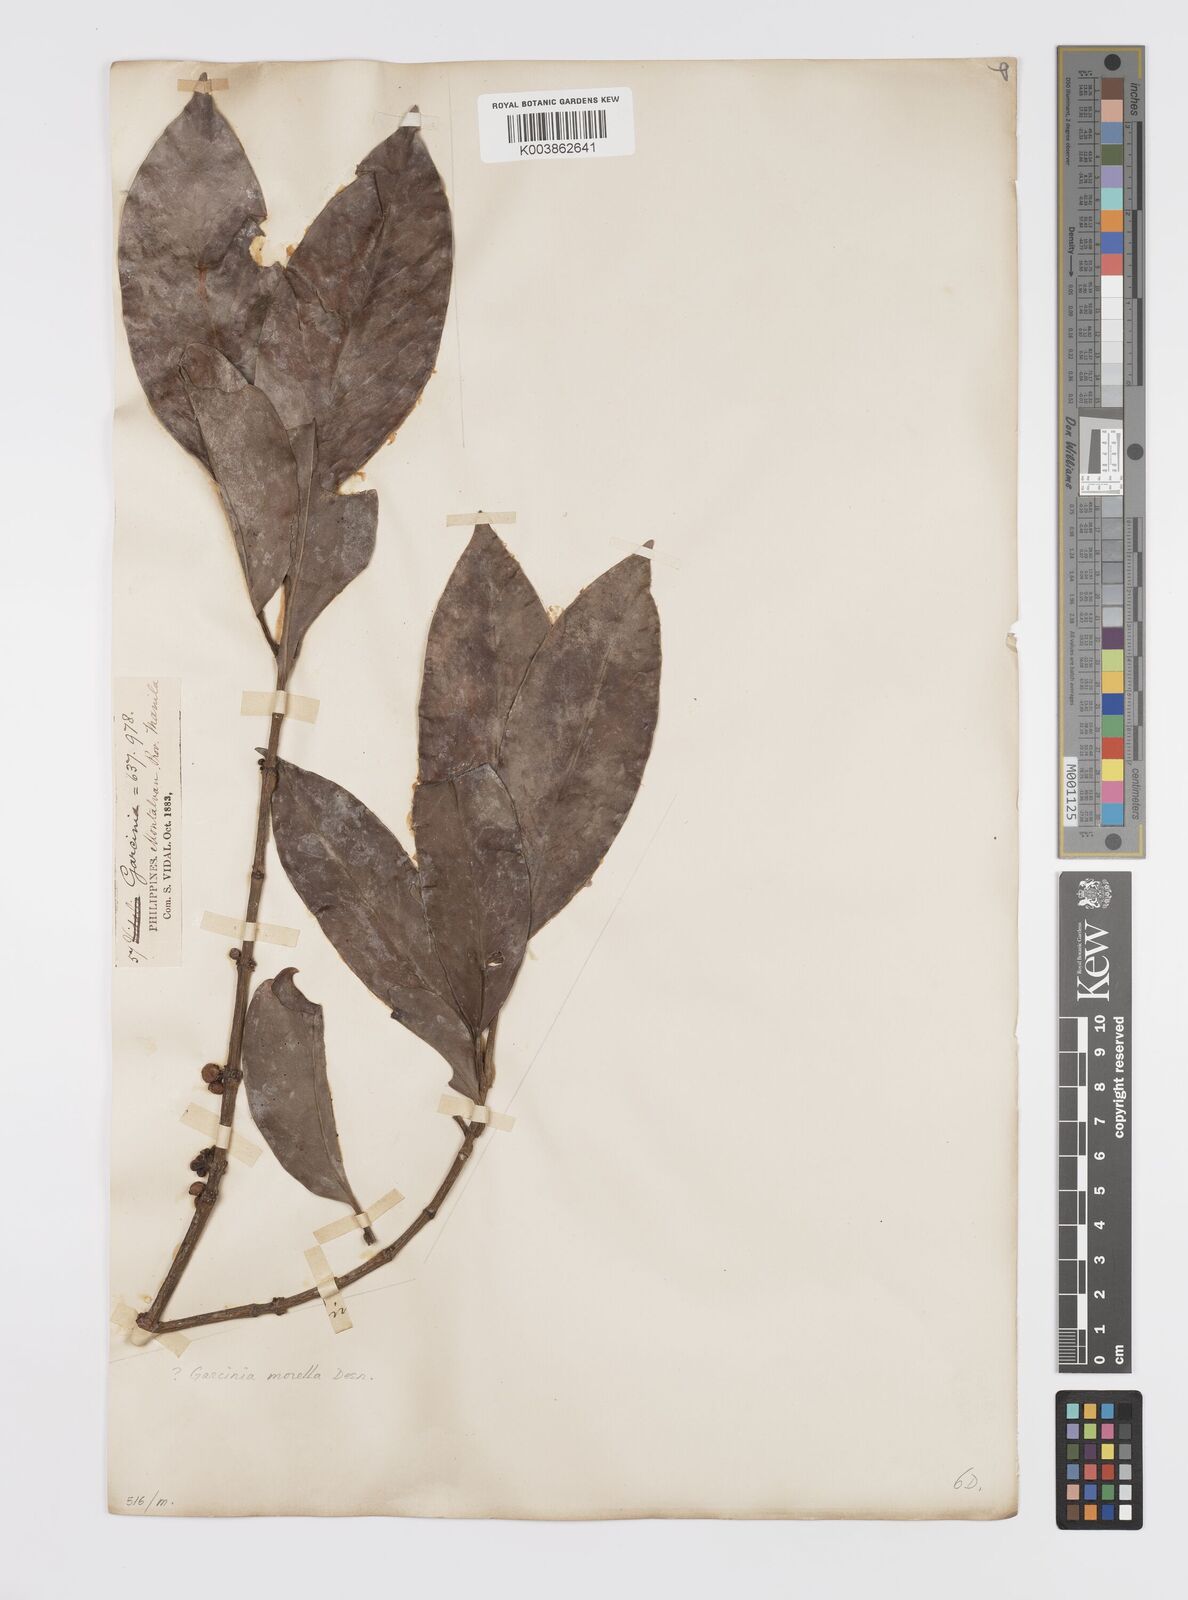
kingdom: Plantae
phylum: Tracheophyta
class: Magnoliopsida
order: Malpighiales
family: Clusiaceae
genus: Garcinia
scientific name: Garcinia
